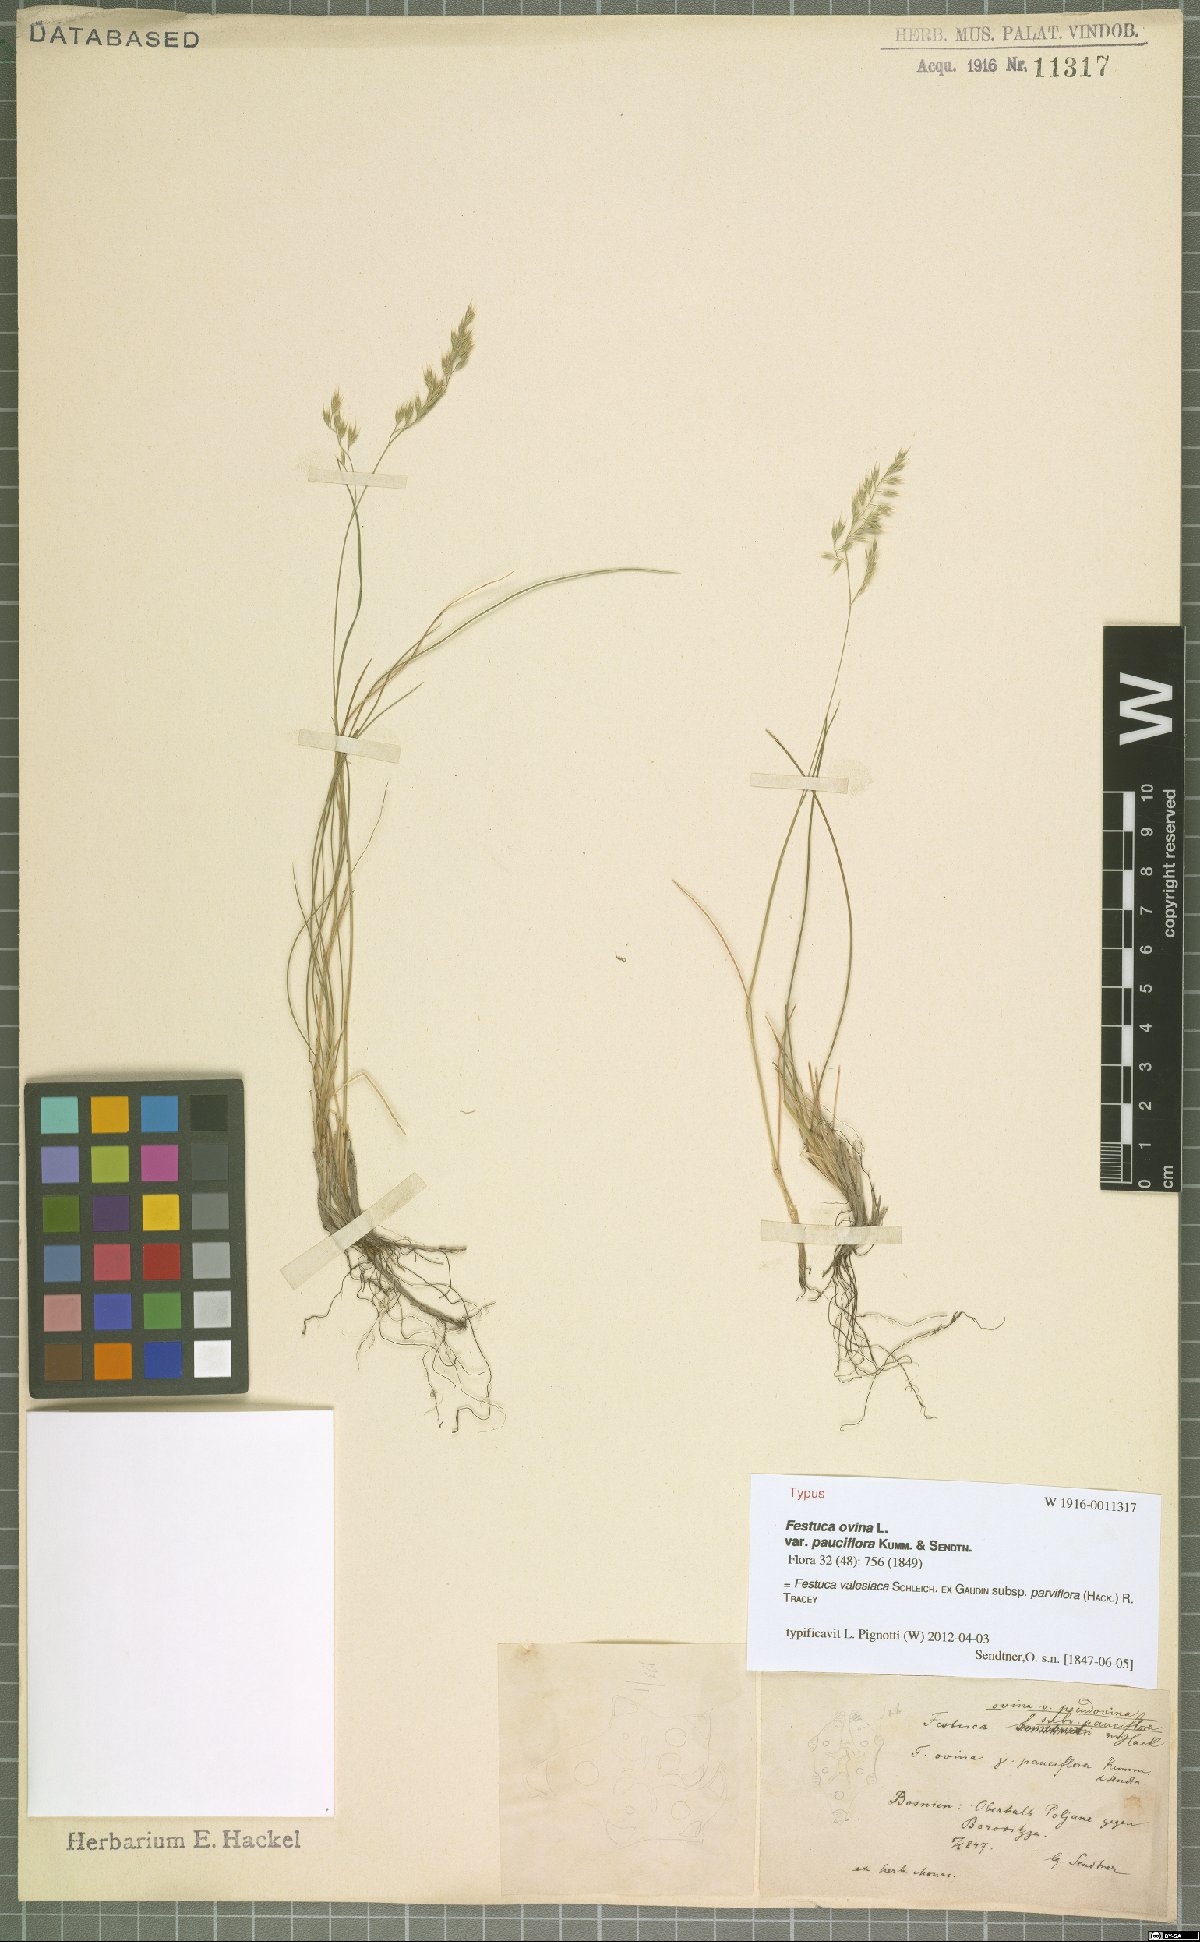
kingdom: Plantae
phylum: Tracheophyta
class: Liliopsida
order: Poales
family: Poaceae
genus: Festuca
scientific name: Festuca pulchra
